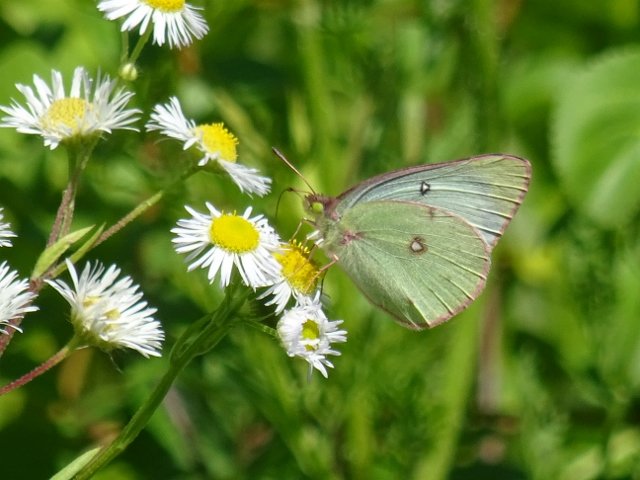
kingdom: Animalia
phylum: Arthropoda
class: Insecta
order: Lepidoptera
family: Pieridae
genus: Colias
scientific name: Colias philodice
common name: Clouded Sulphur
